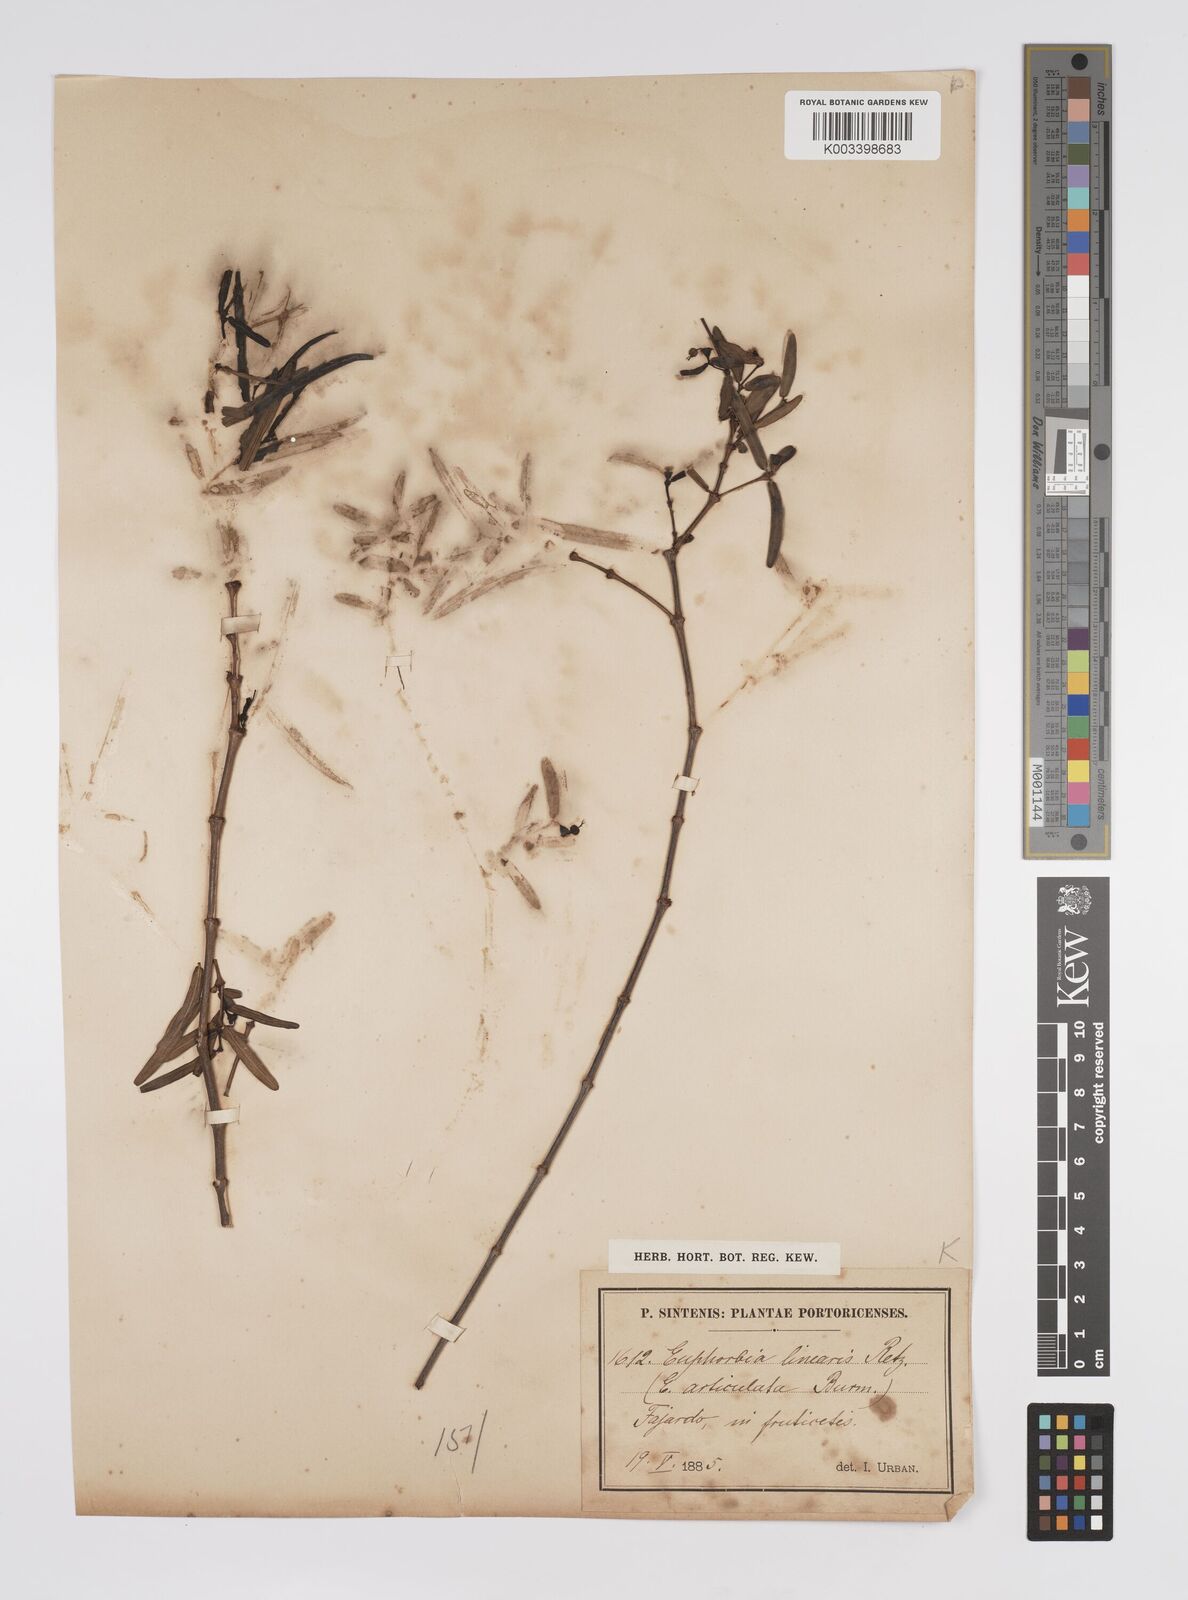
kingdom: Plantae
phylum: Tracheophyta
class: Magnoliopsida
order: Malpighiales
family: Euphorbiaceae
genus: Euphorbia
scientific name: Euphorbia articulata
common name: Jointed sandmat
